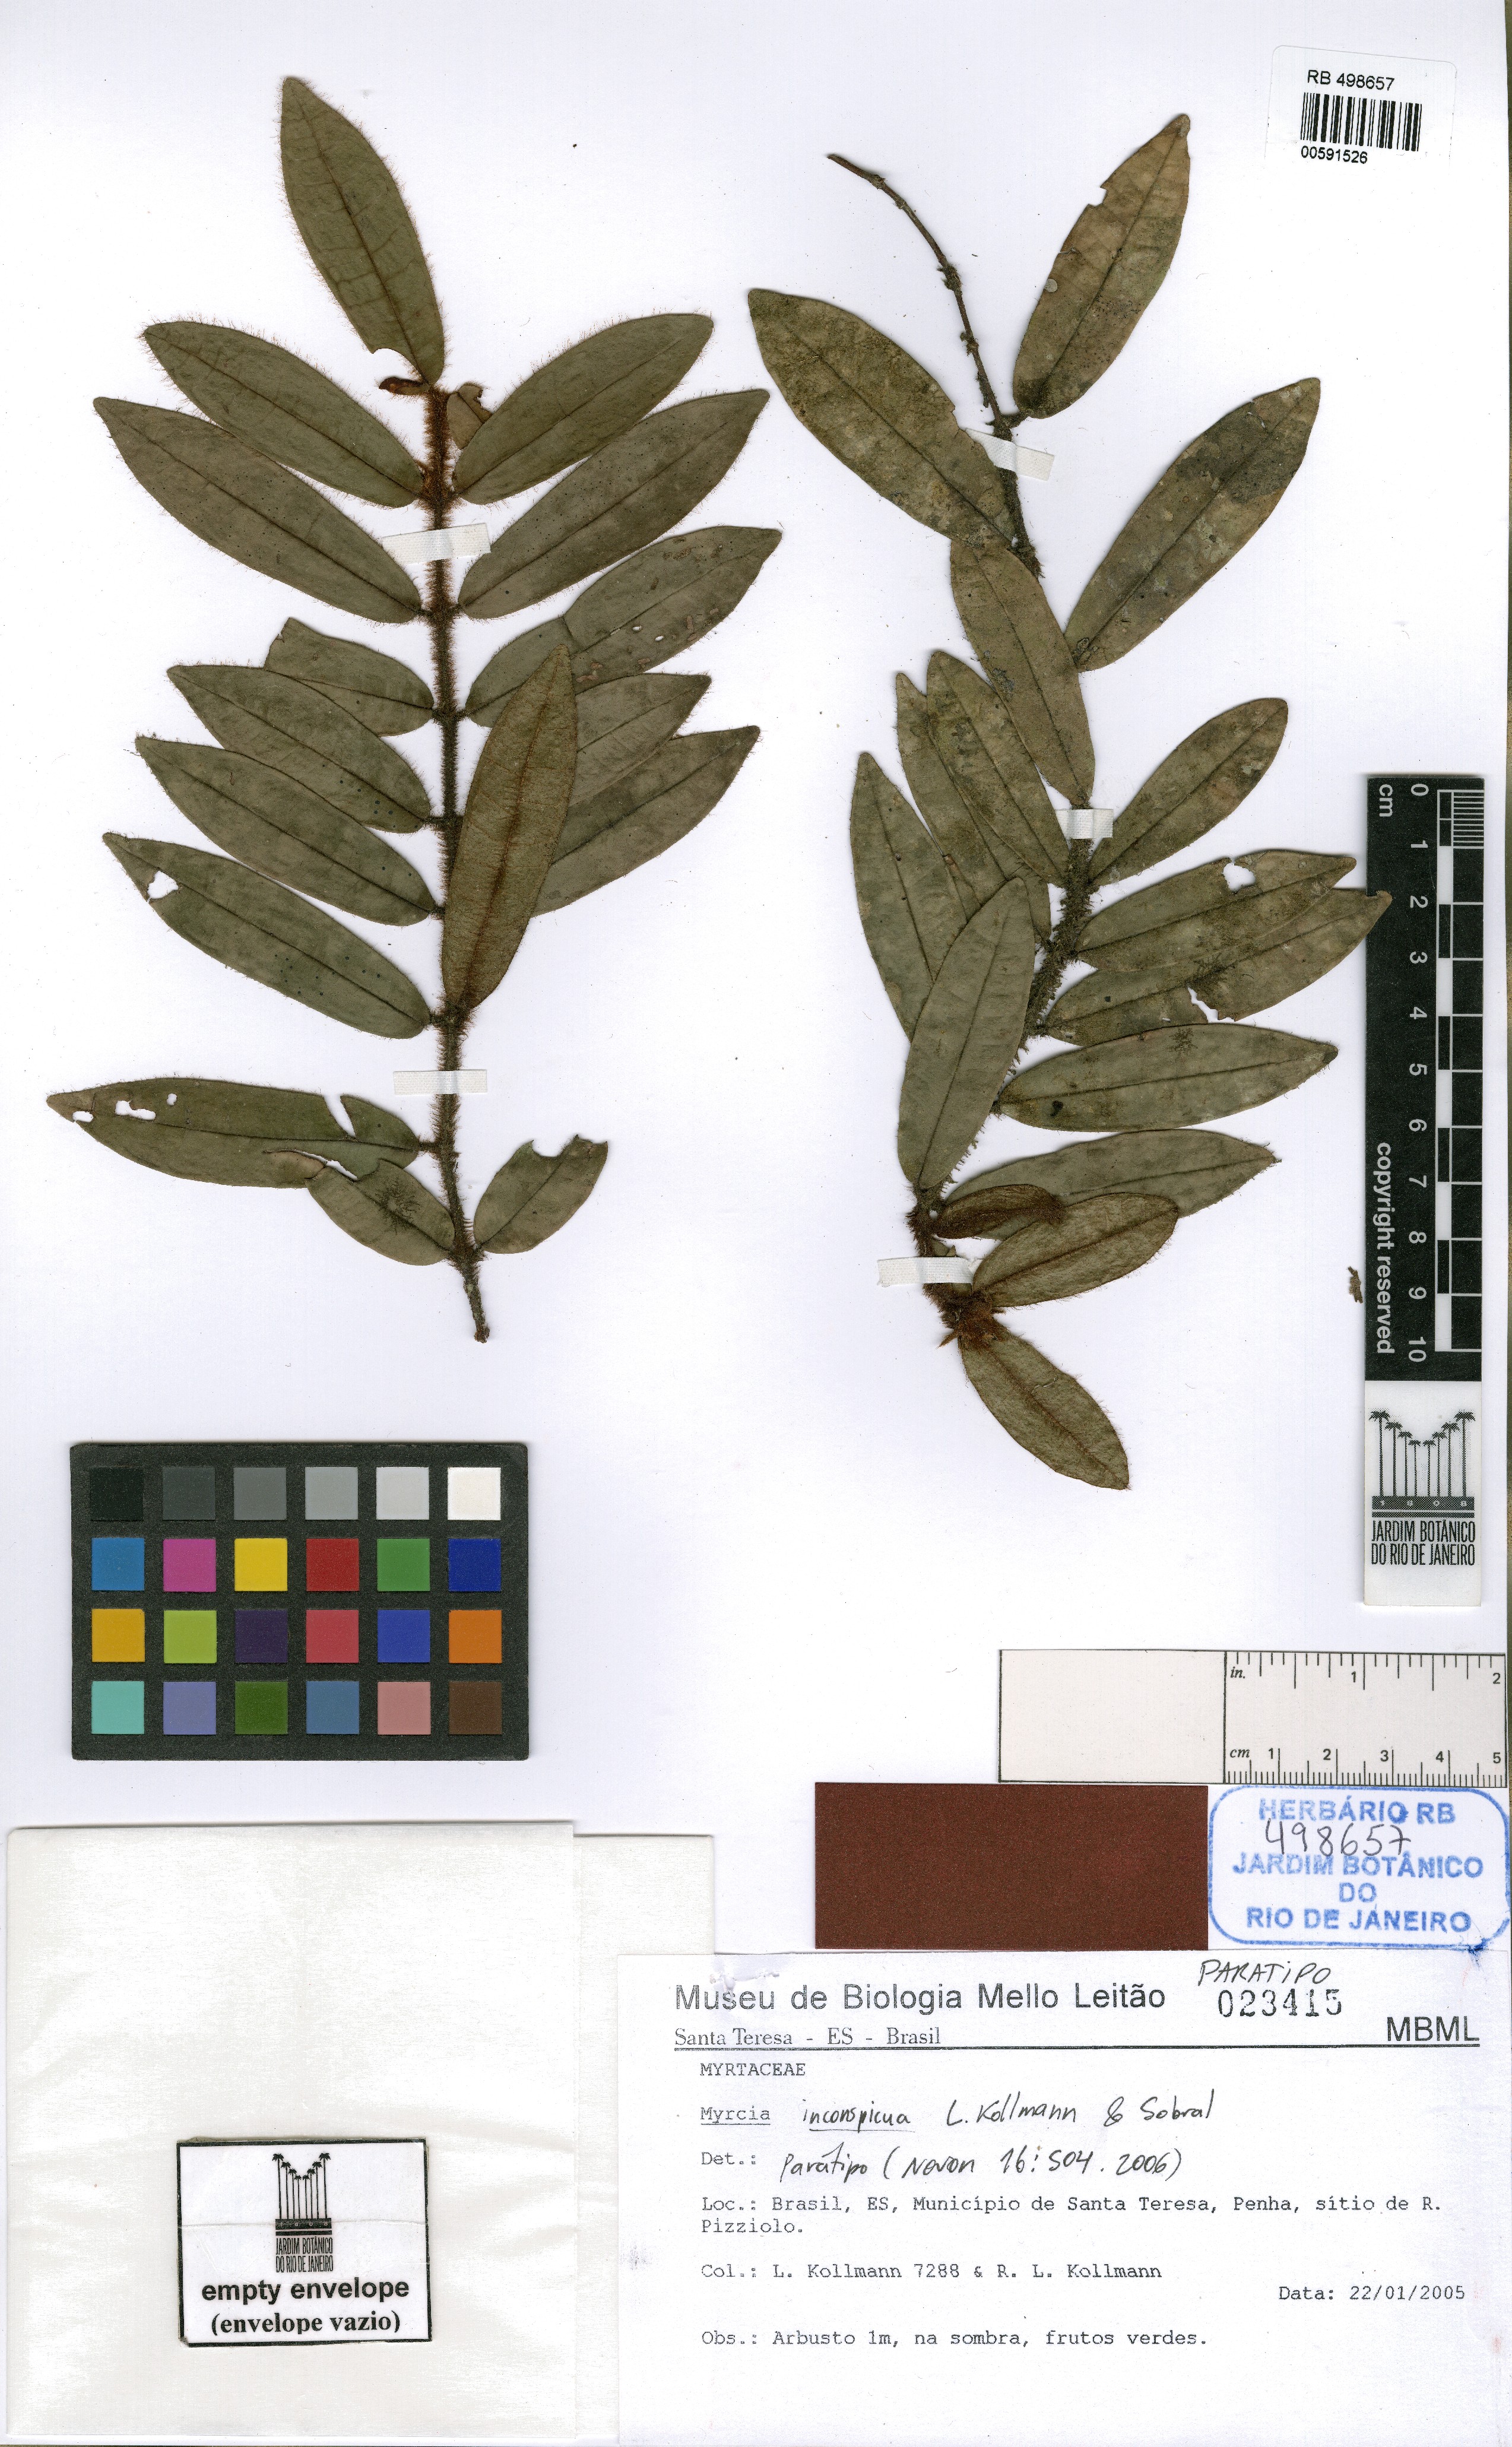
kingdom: Plantae
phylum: Tracheophyta
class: Magnoliopsida
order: Myrtales
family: Myrtaceae
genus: Myrcia
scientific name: Myrcia inconspicua
